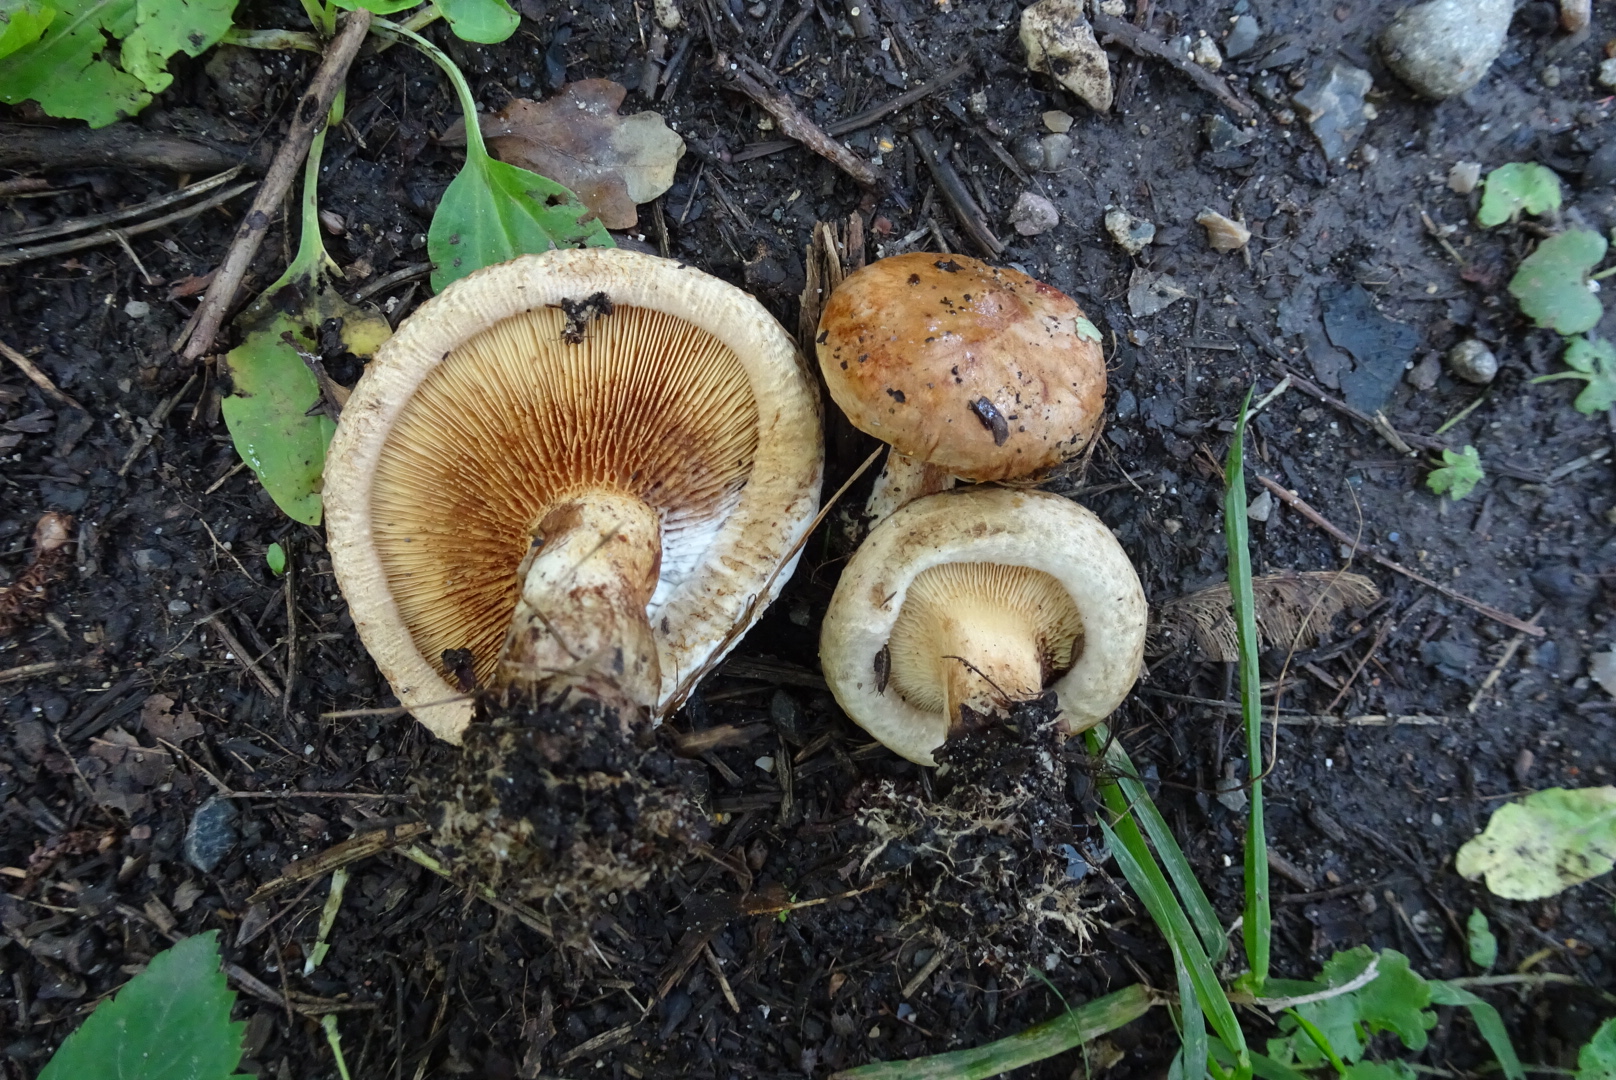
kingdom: Fungi
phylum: Basidiomycota
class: Agaricomycetes
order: Boletales
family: Paxillaceae
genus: Paxillus
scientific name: Paxillus involutus
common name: almindelig netbladhat
